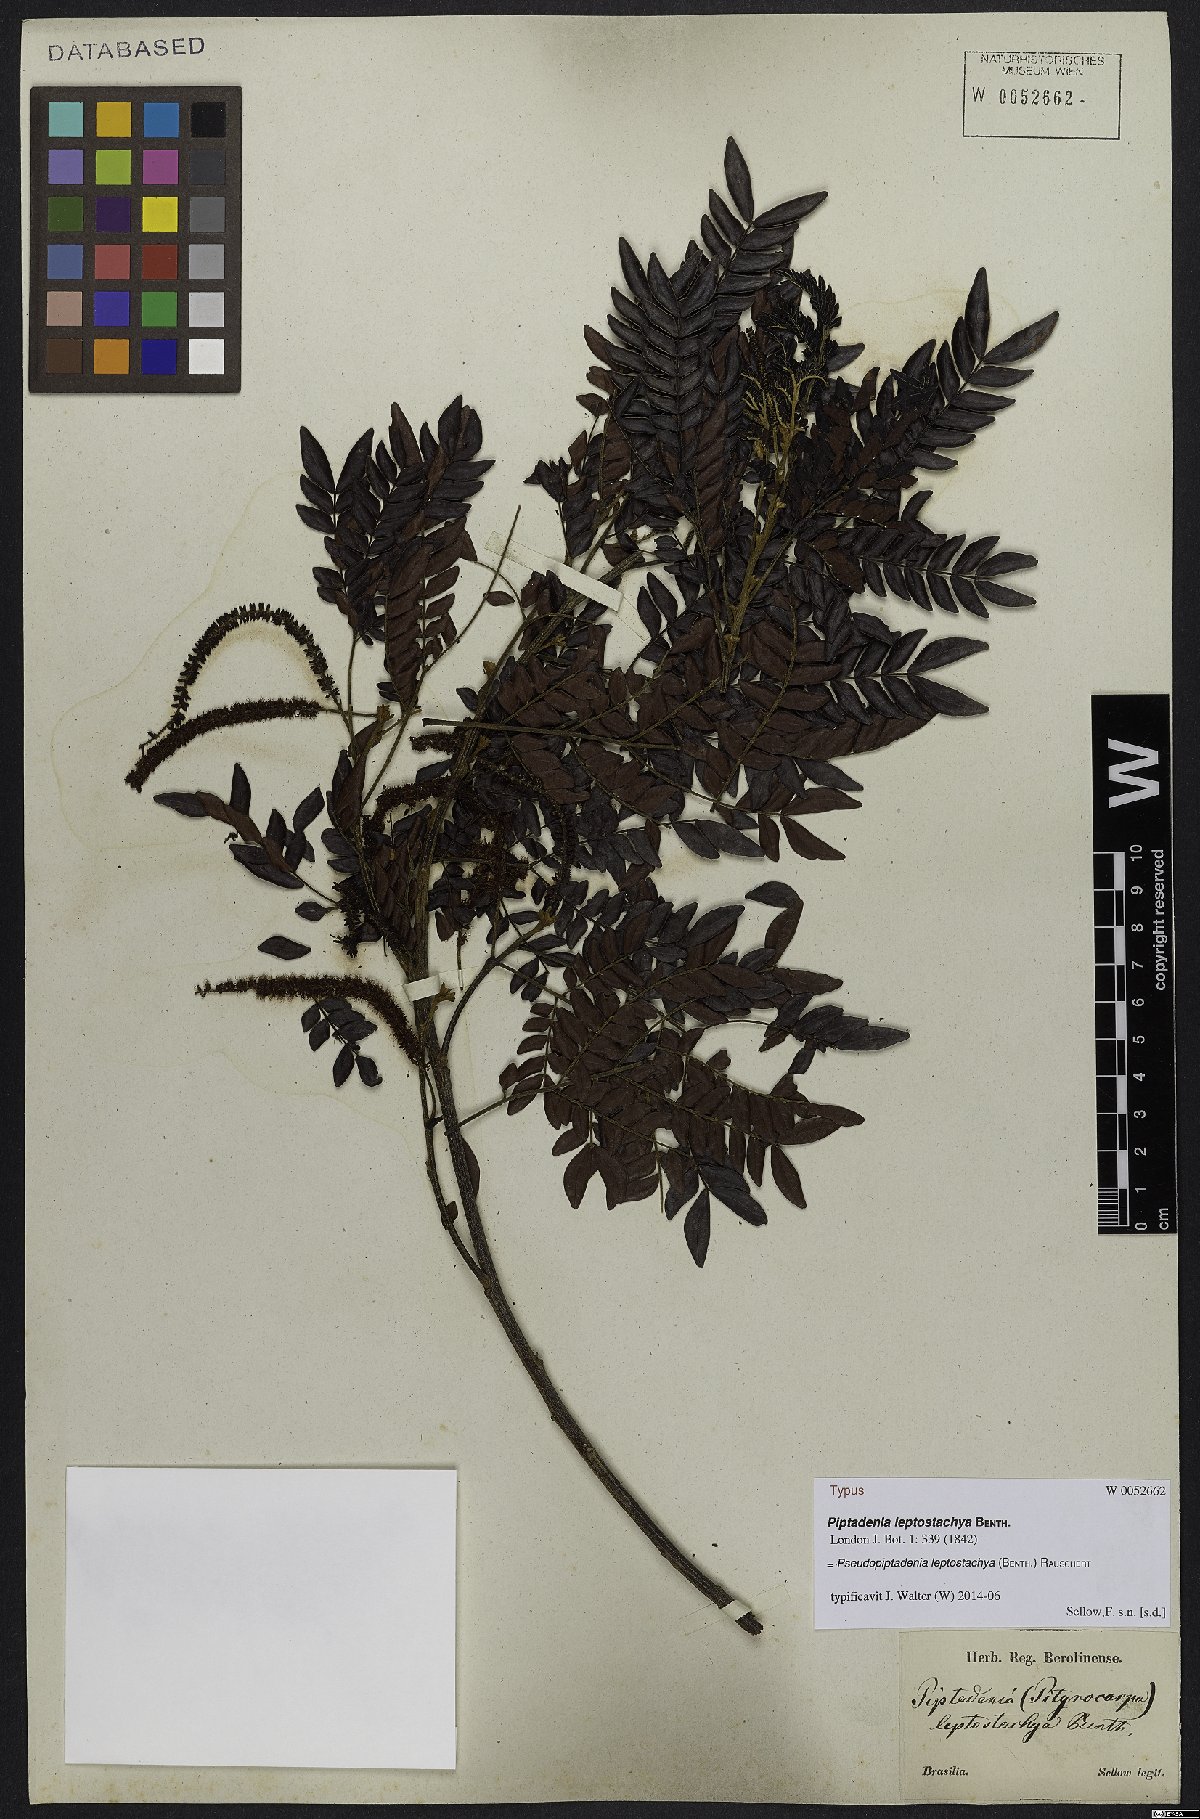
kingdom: Plantae
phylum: Tracheophyta
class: Magnoliopsida
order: Fabales
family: Fabaceae
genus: Pseudopiptadenia
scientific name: Pseudopiptadenia leptostachya
